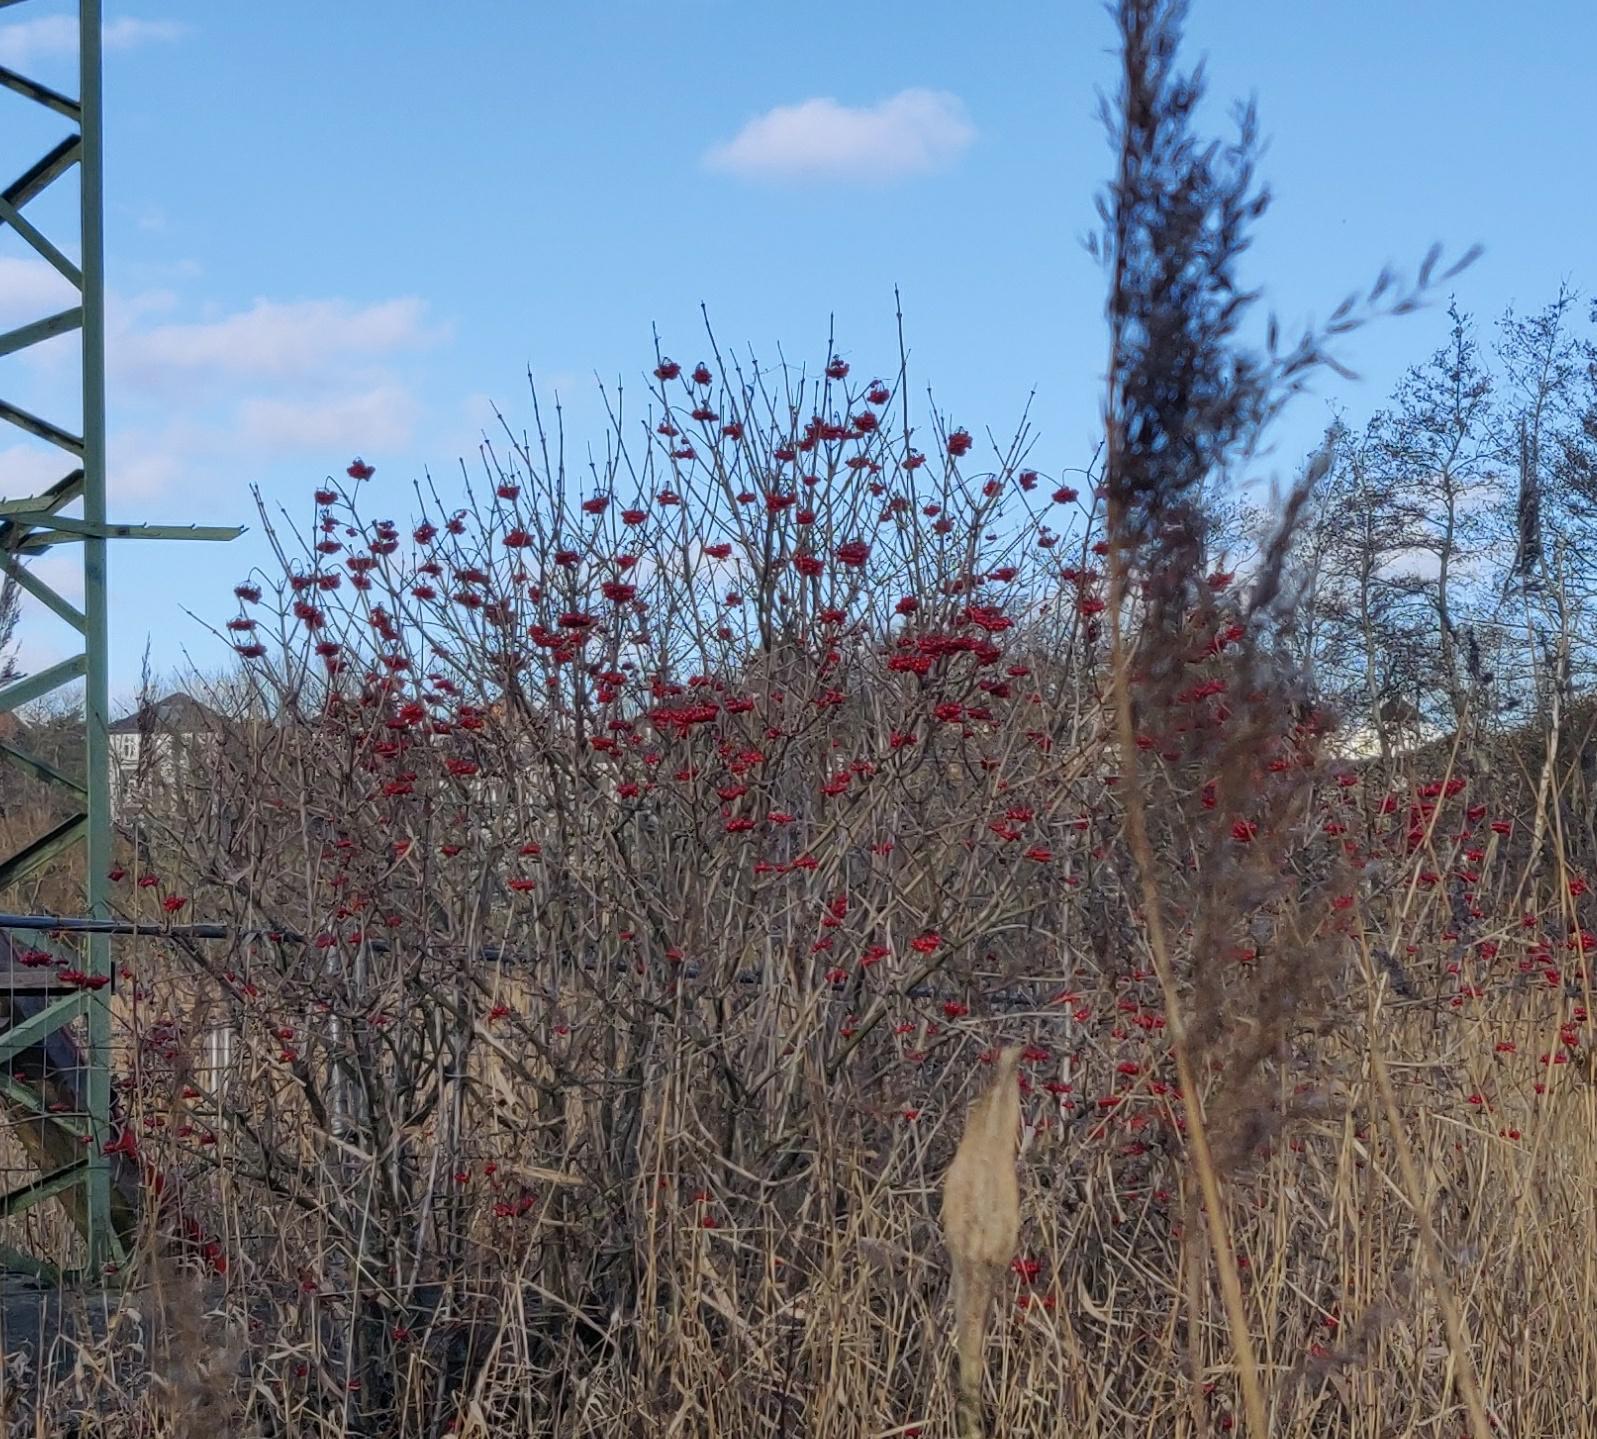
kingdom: Plantae
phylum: Tracheophyta
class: Magnoliopsida
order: Dipsacales
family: Viburnaceae
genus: Viburnum
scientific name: Viburnum opulus
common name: Kvalkved
